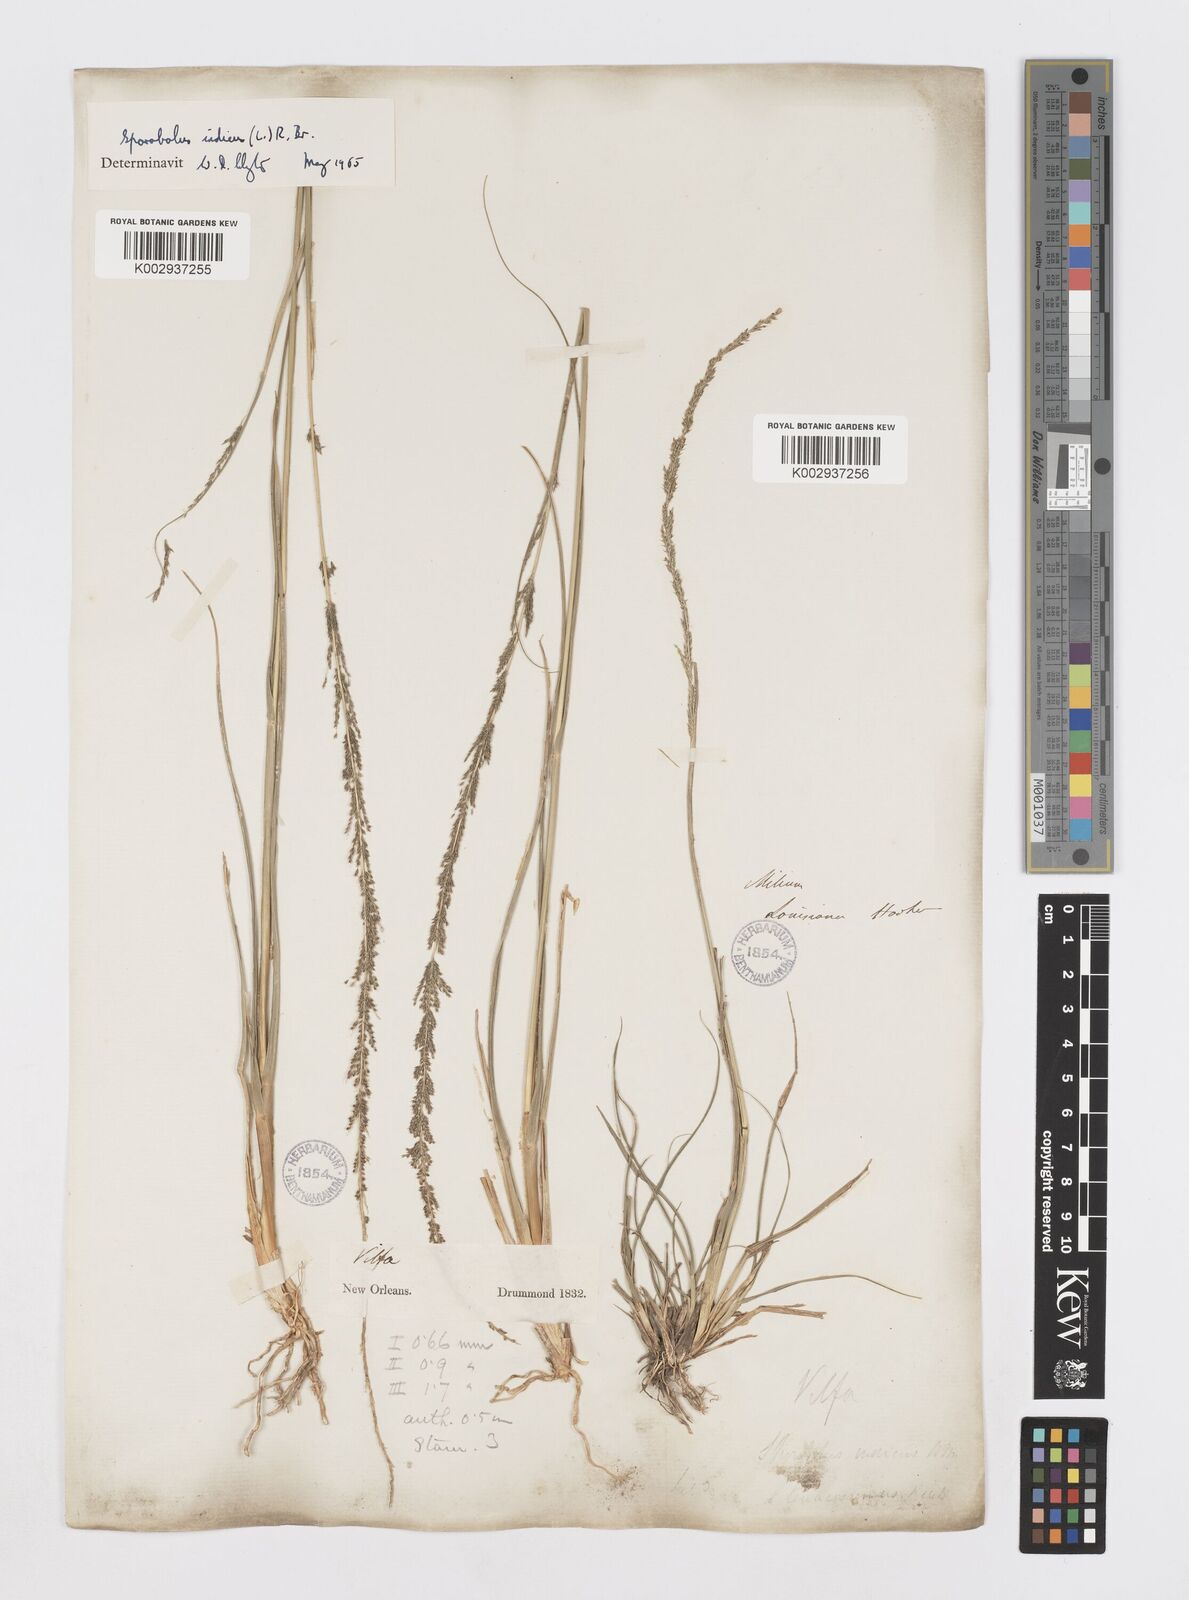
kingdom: Plantae
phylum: Tracheophyta
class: Liliopsida
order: Poales
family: Poaceae
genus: Sporobolus
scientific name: Sporobolus indicus
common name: Smut grass
